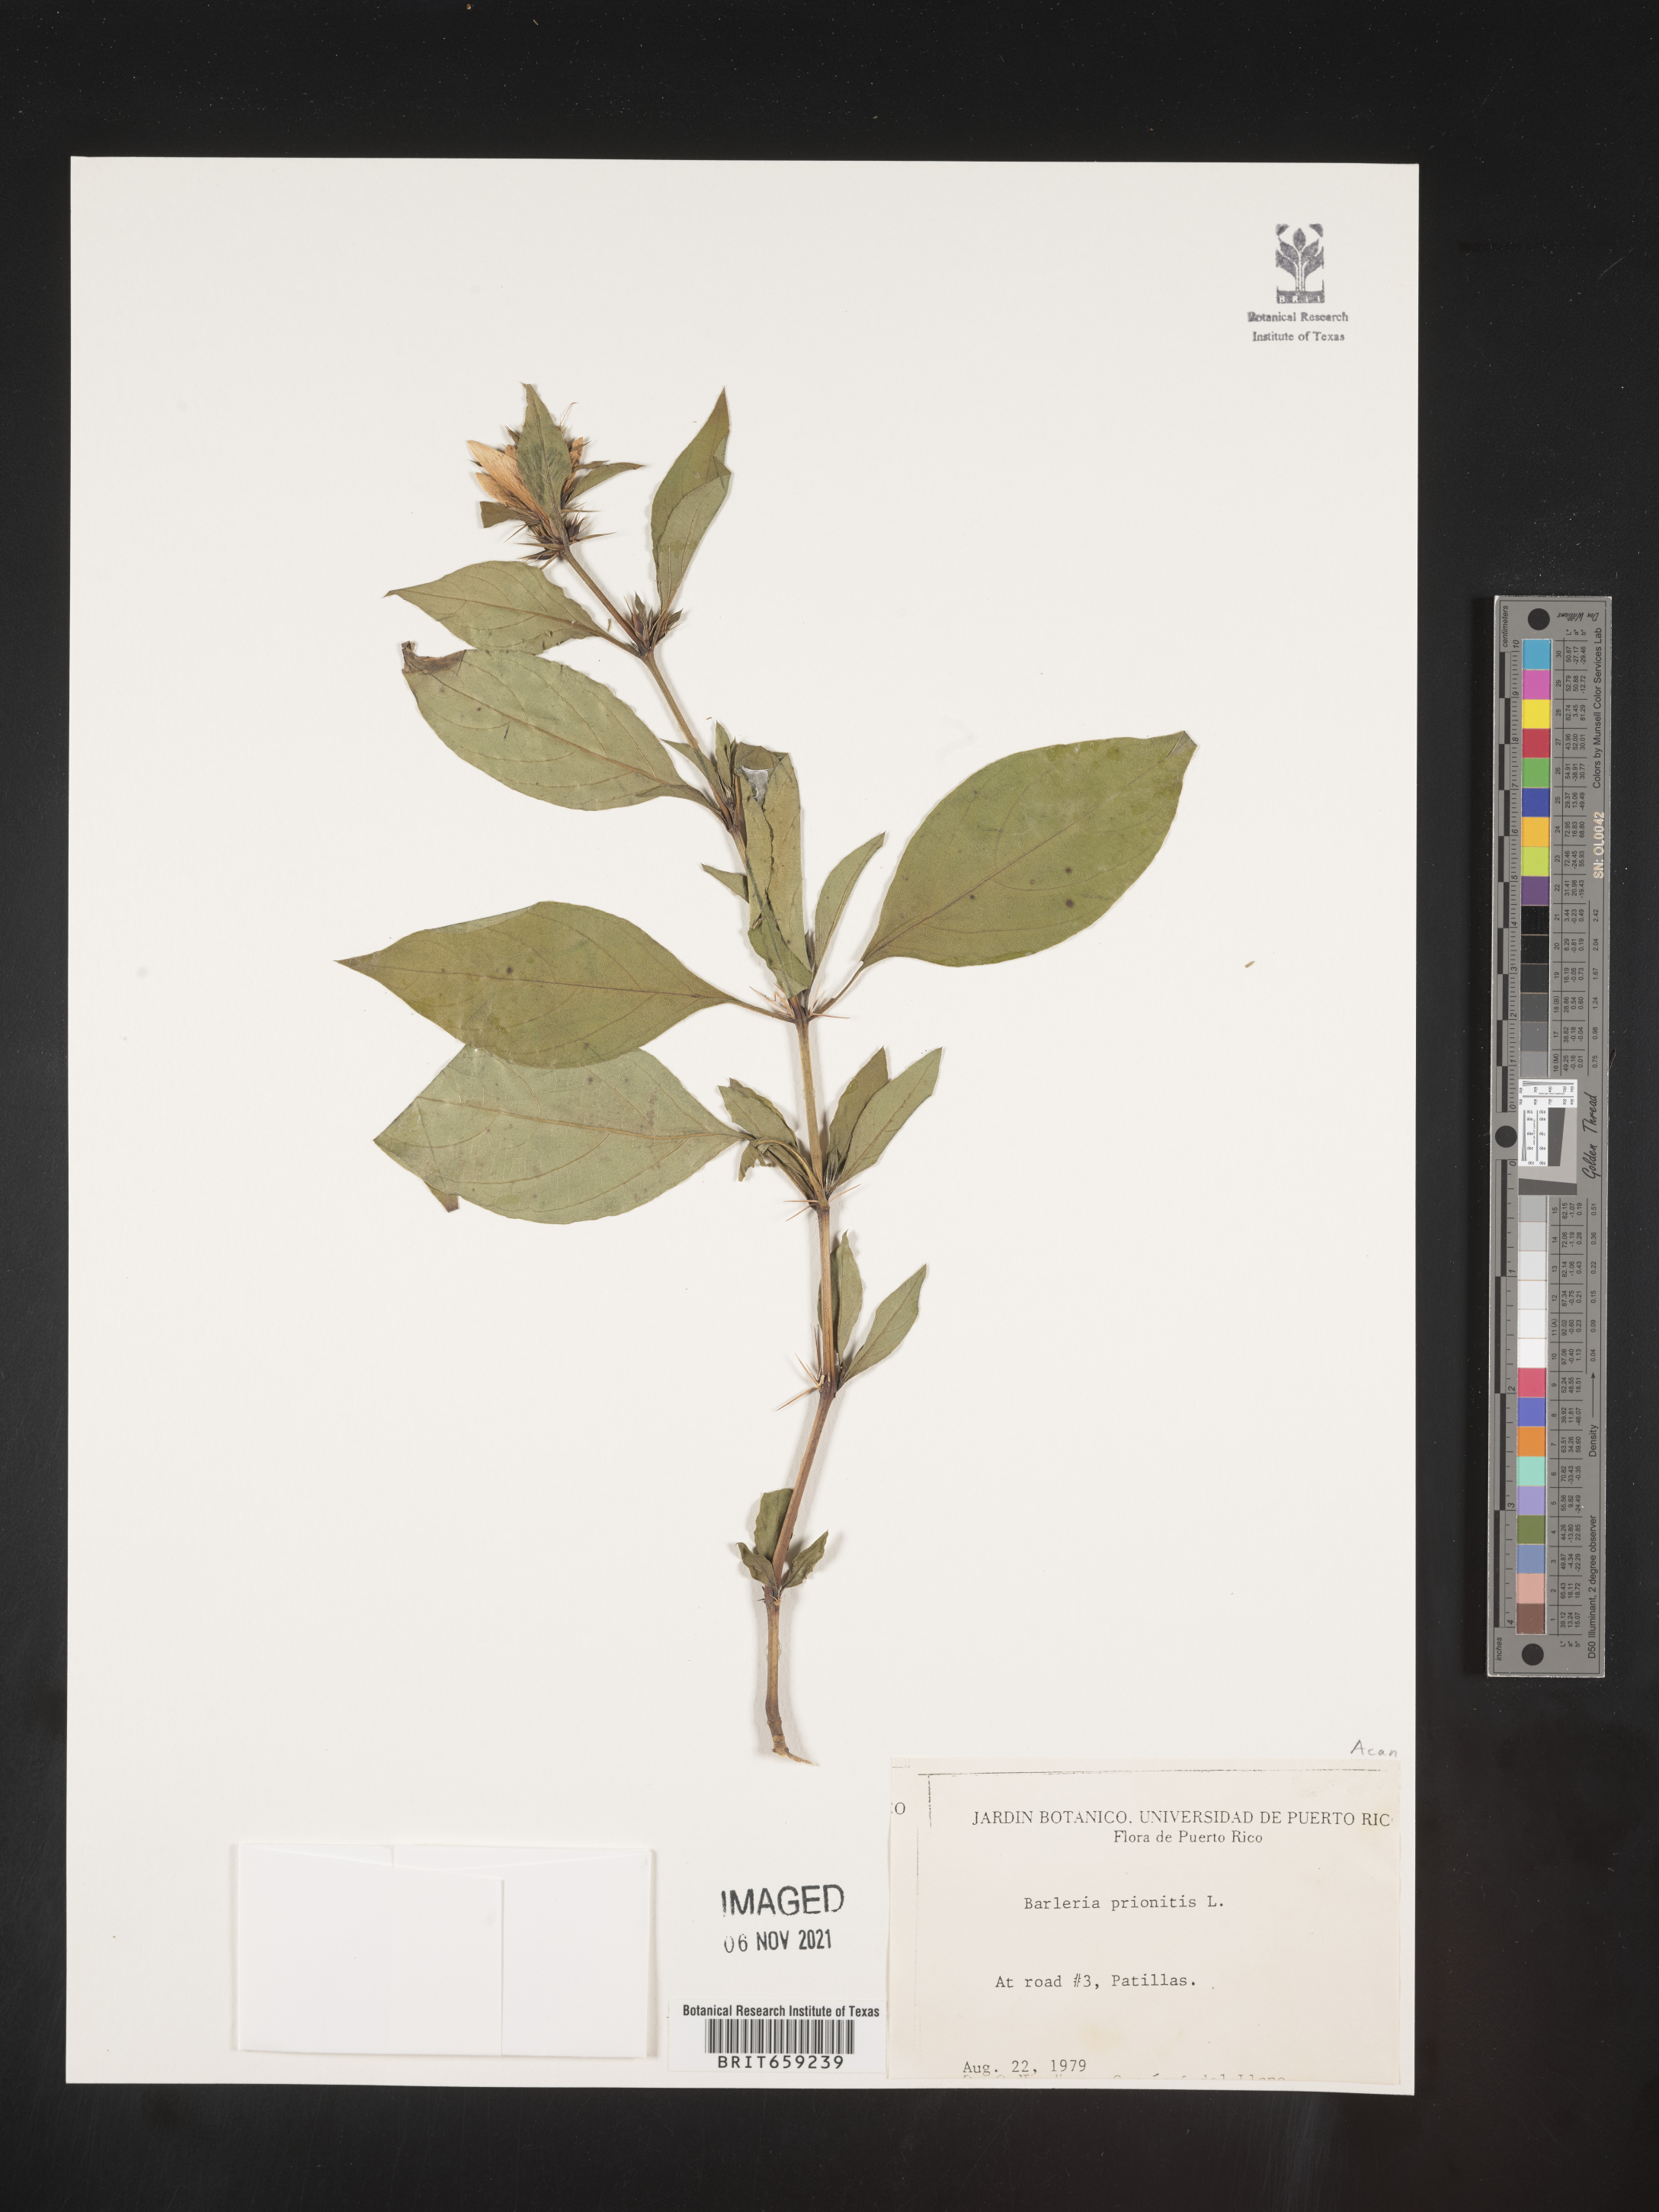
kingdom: Plantae
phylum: Tracheophyta
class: Magnoliopsida
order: Lamiales
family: Acanthaceae
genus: Barleria
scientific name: Barleria
